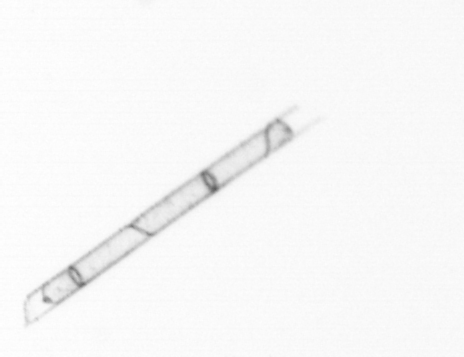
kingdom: Chromista
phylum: Ochrophyta
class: Bacillariophyceae
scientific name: Bacillariophyceae
